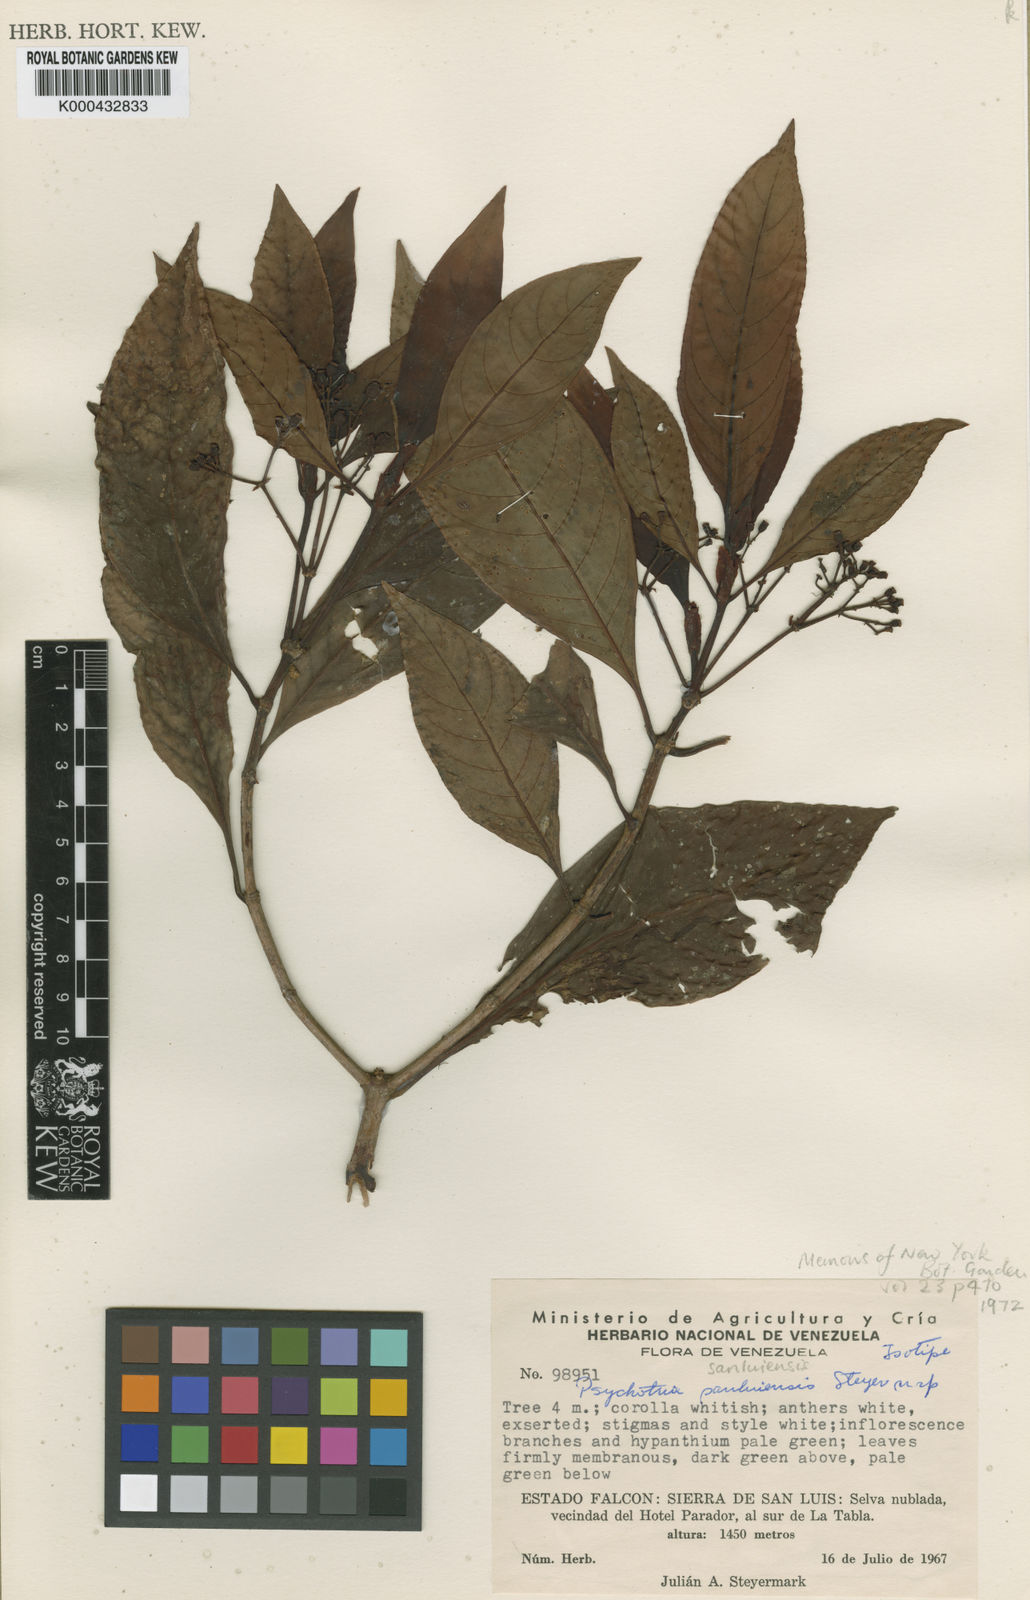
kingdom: Plantae
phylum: Tracheophyta
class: Magnoliopsida
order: Gentianales
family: Rubiaceae
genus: Psychotria
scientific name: Psychotria sanluisensis
